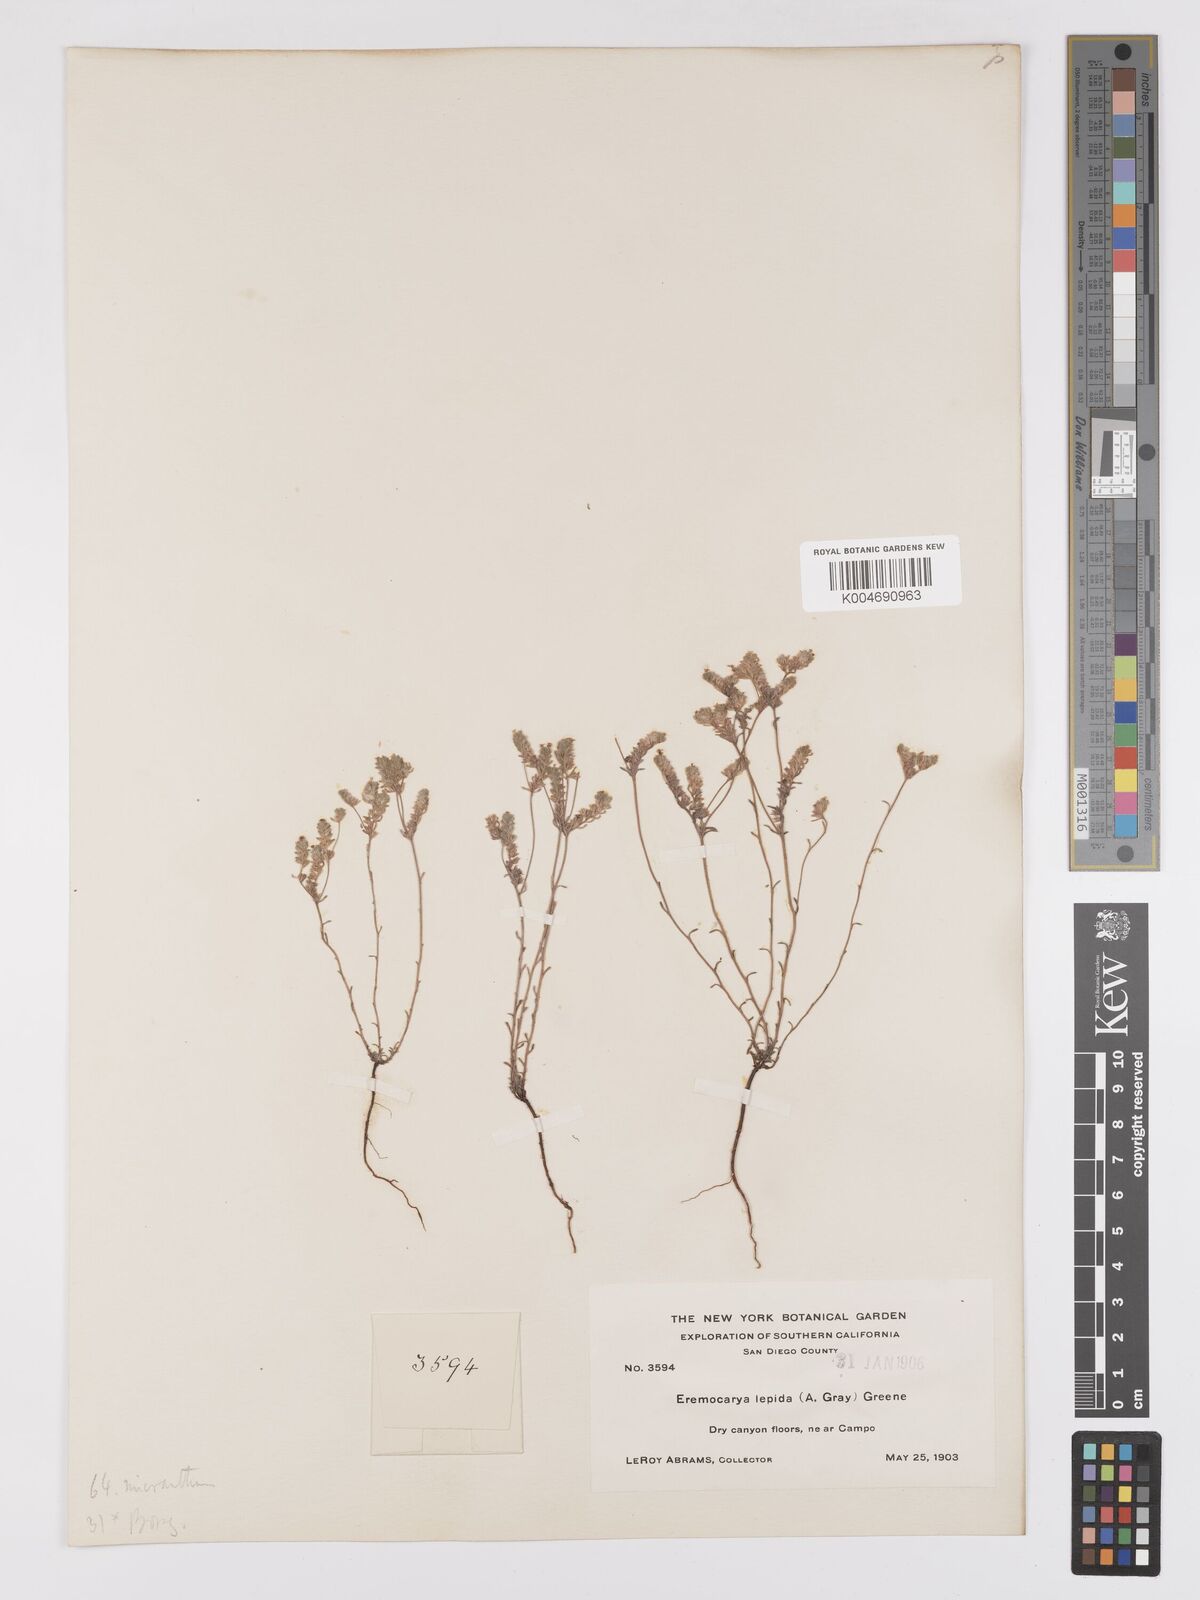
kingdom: Plantae
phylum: Tracheophyta
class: Magnoliopsida
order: Boraginales
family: Boraginaceae
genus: Eremocarya
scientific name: Eremocarya lepida
